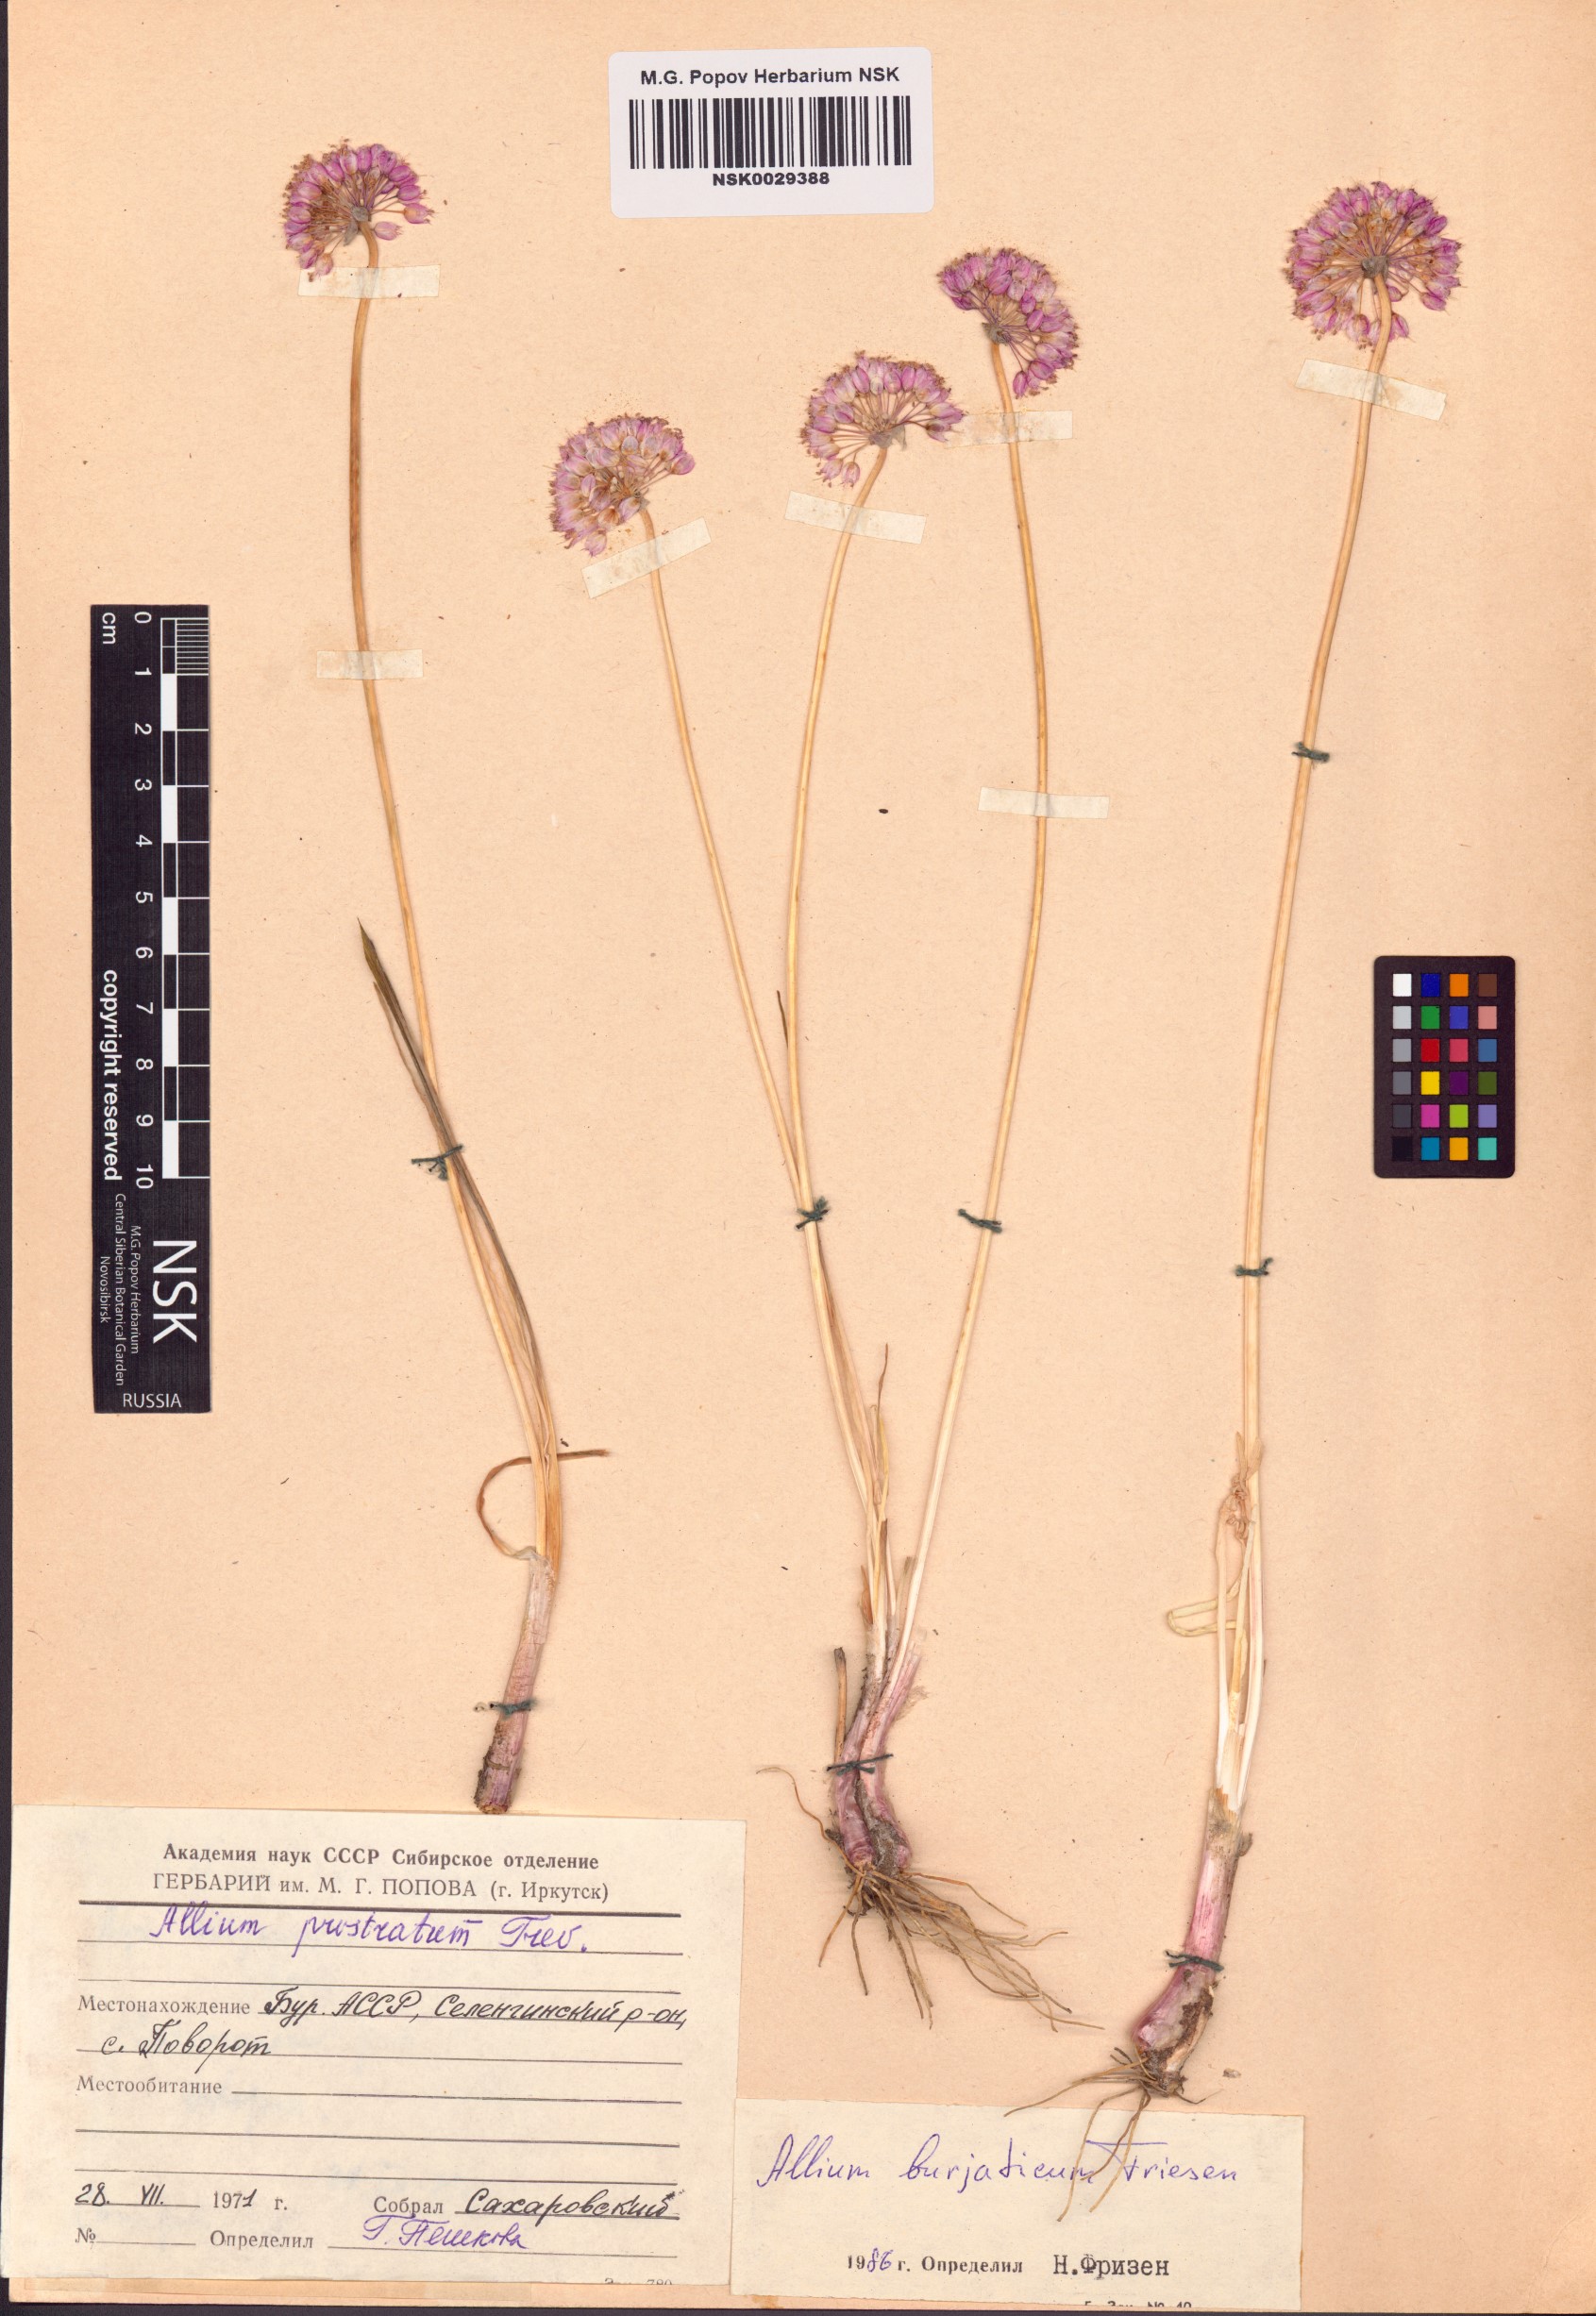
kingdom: Plantae
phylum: Tracheophyta
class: Liliopsida
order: Asparagales
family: Amaryllidaceae
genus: Allium
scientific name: Allium burjaticum
